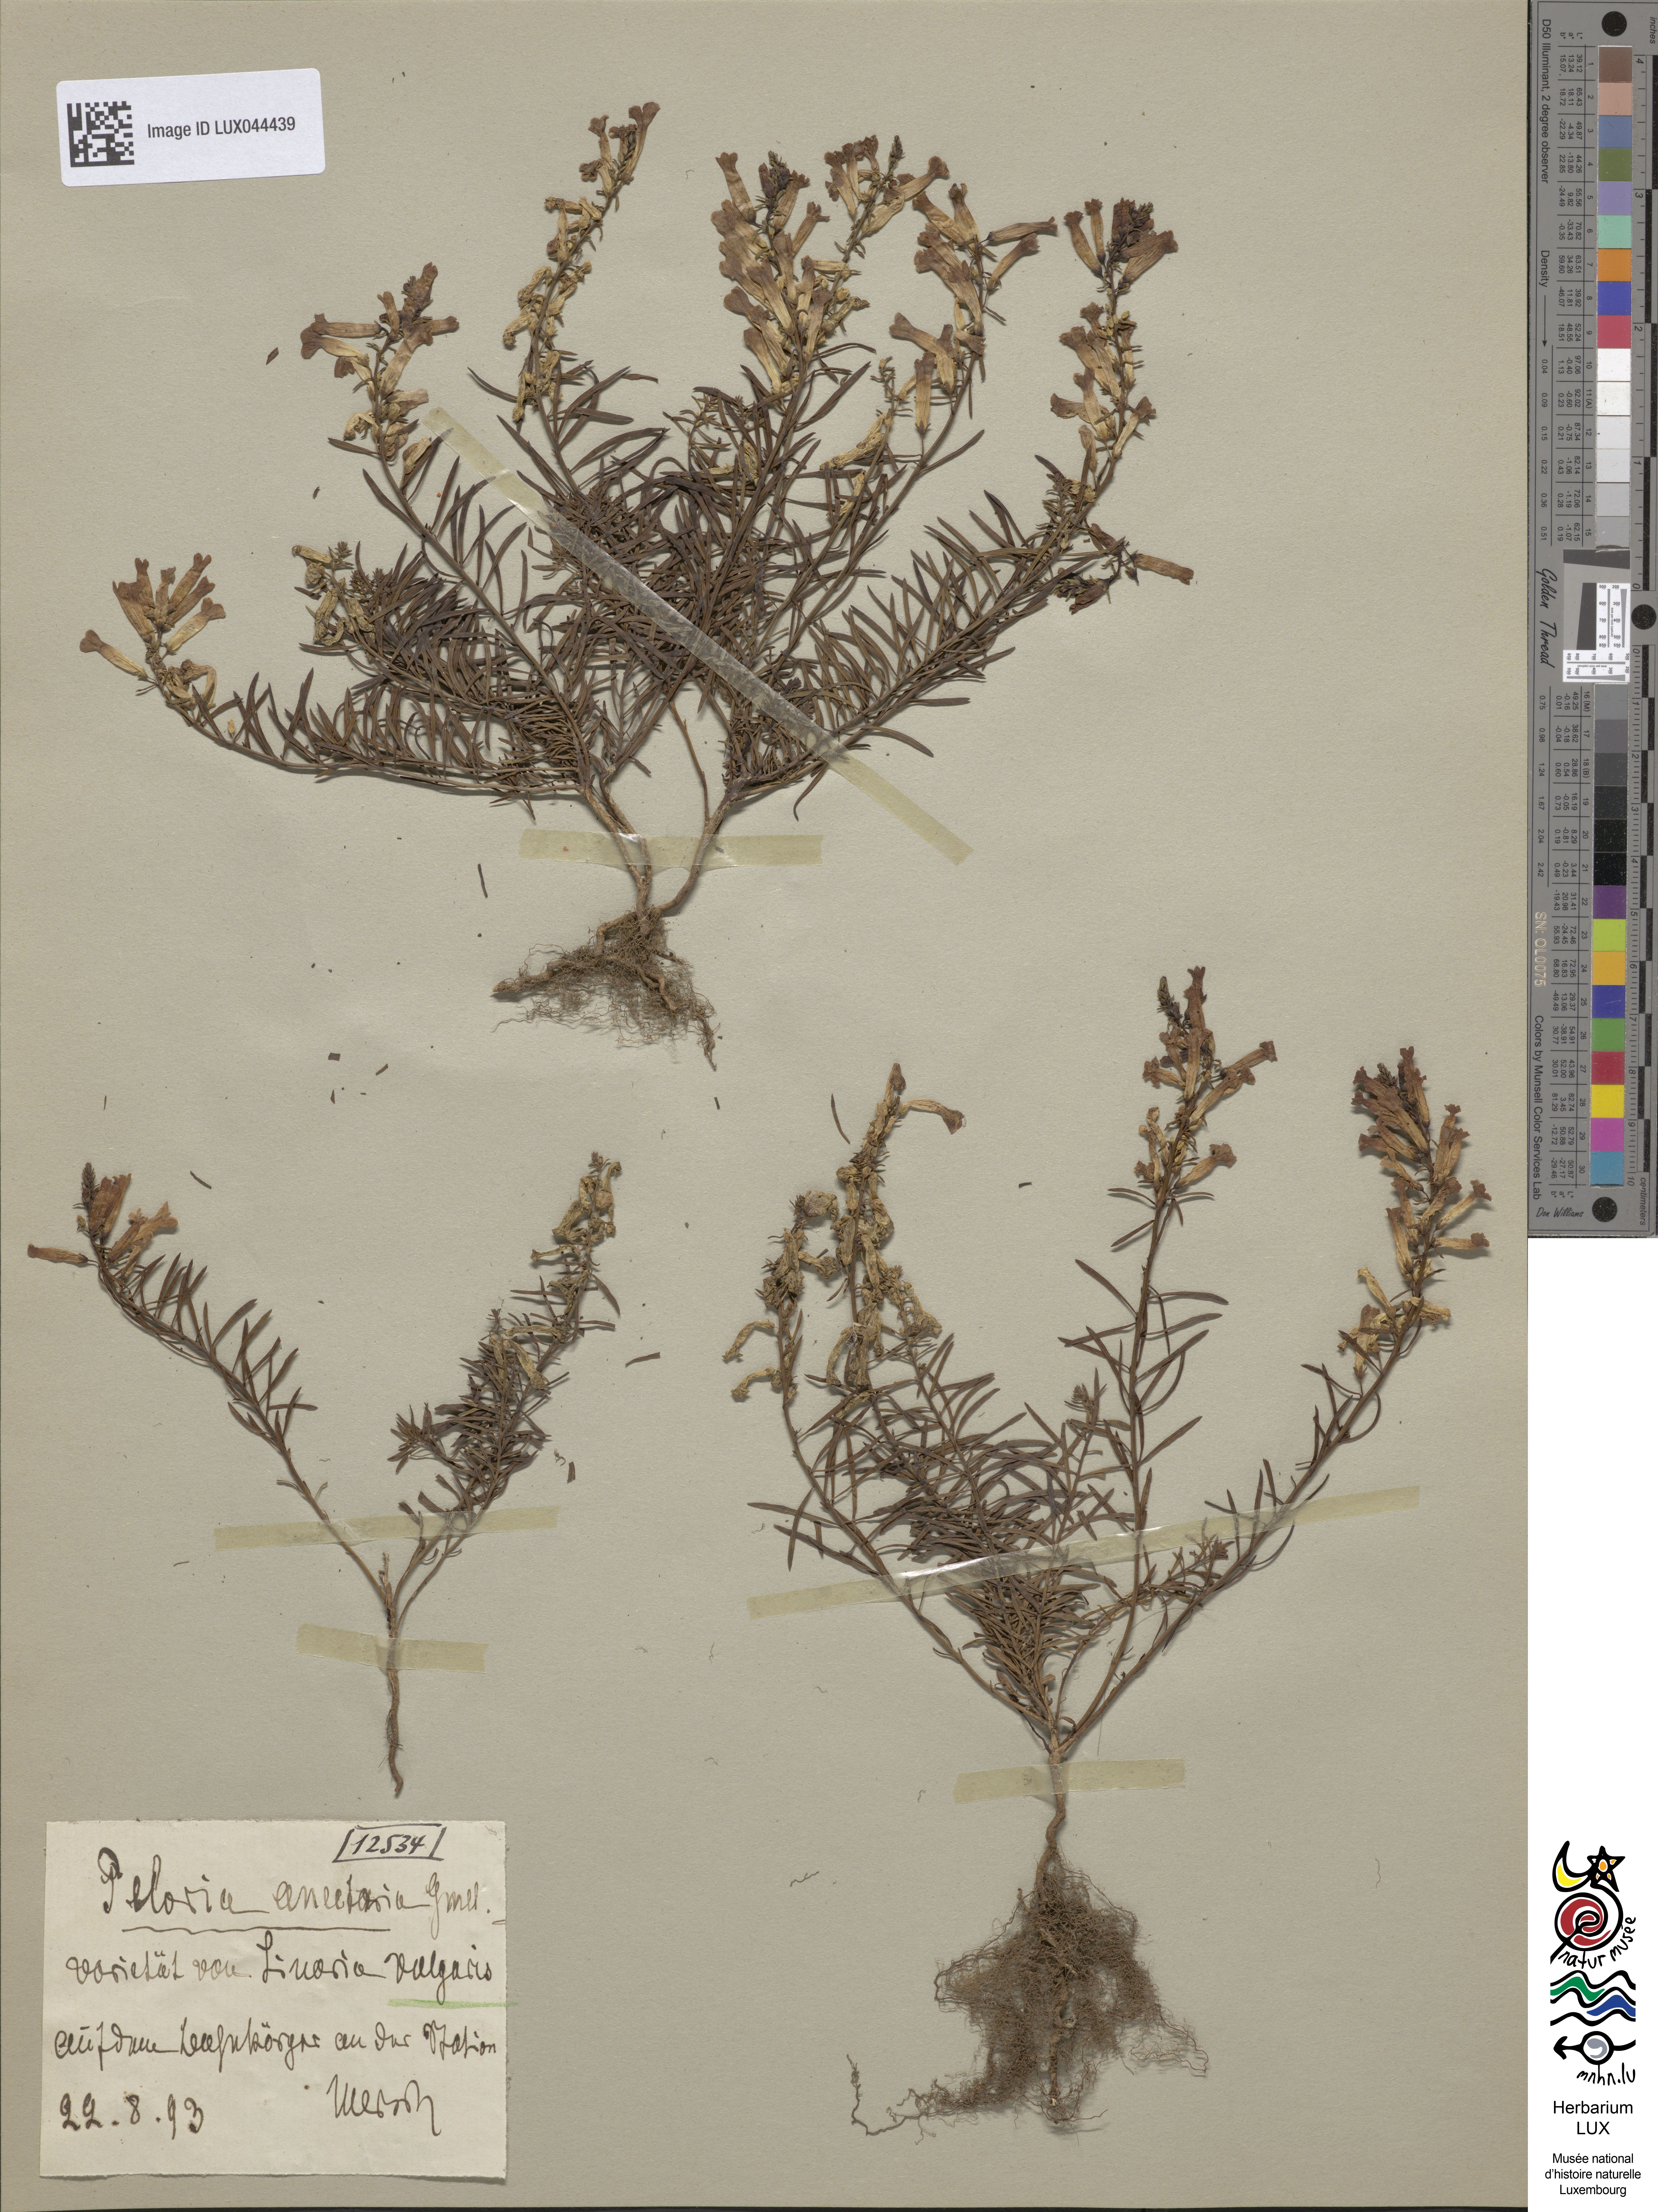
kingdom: Plantae
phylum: Tracheophyta
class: Magnoliopsida
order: Lamiales
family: Plantaginaceae
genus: Linaria
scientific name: Linaria vulgaris
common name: Butter and eggs
